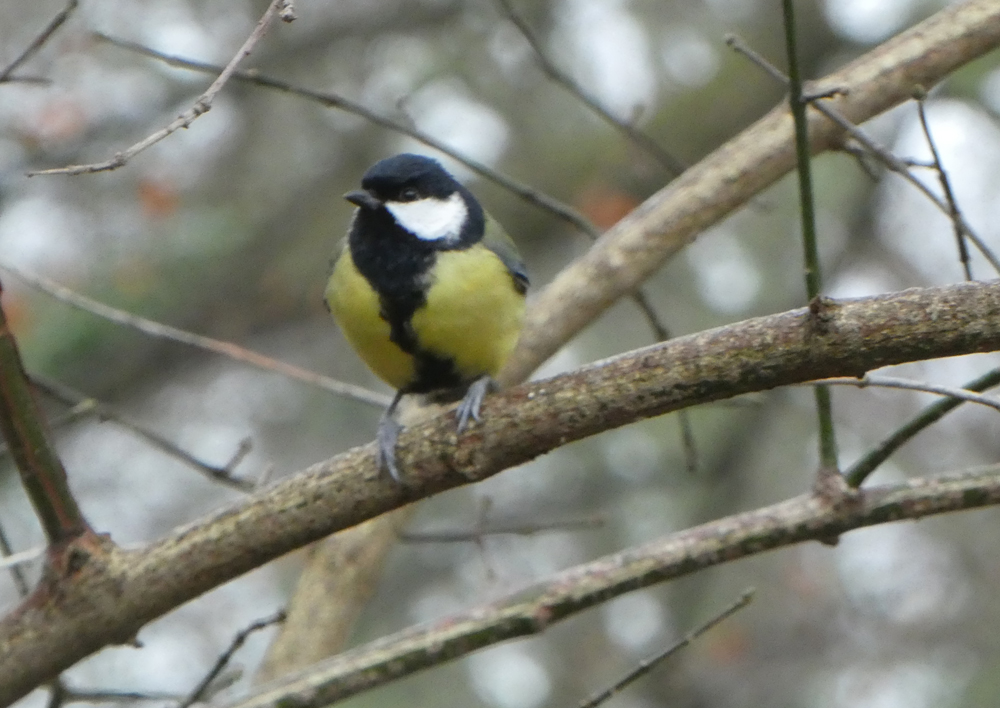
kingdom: Animalia
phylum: Chordata
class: Aves
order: Passeriformes
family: Paridae
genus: Parus
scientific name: Parus major
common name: Great tit
